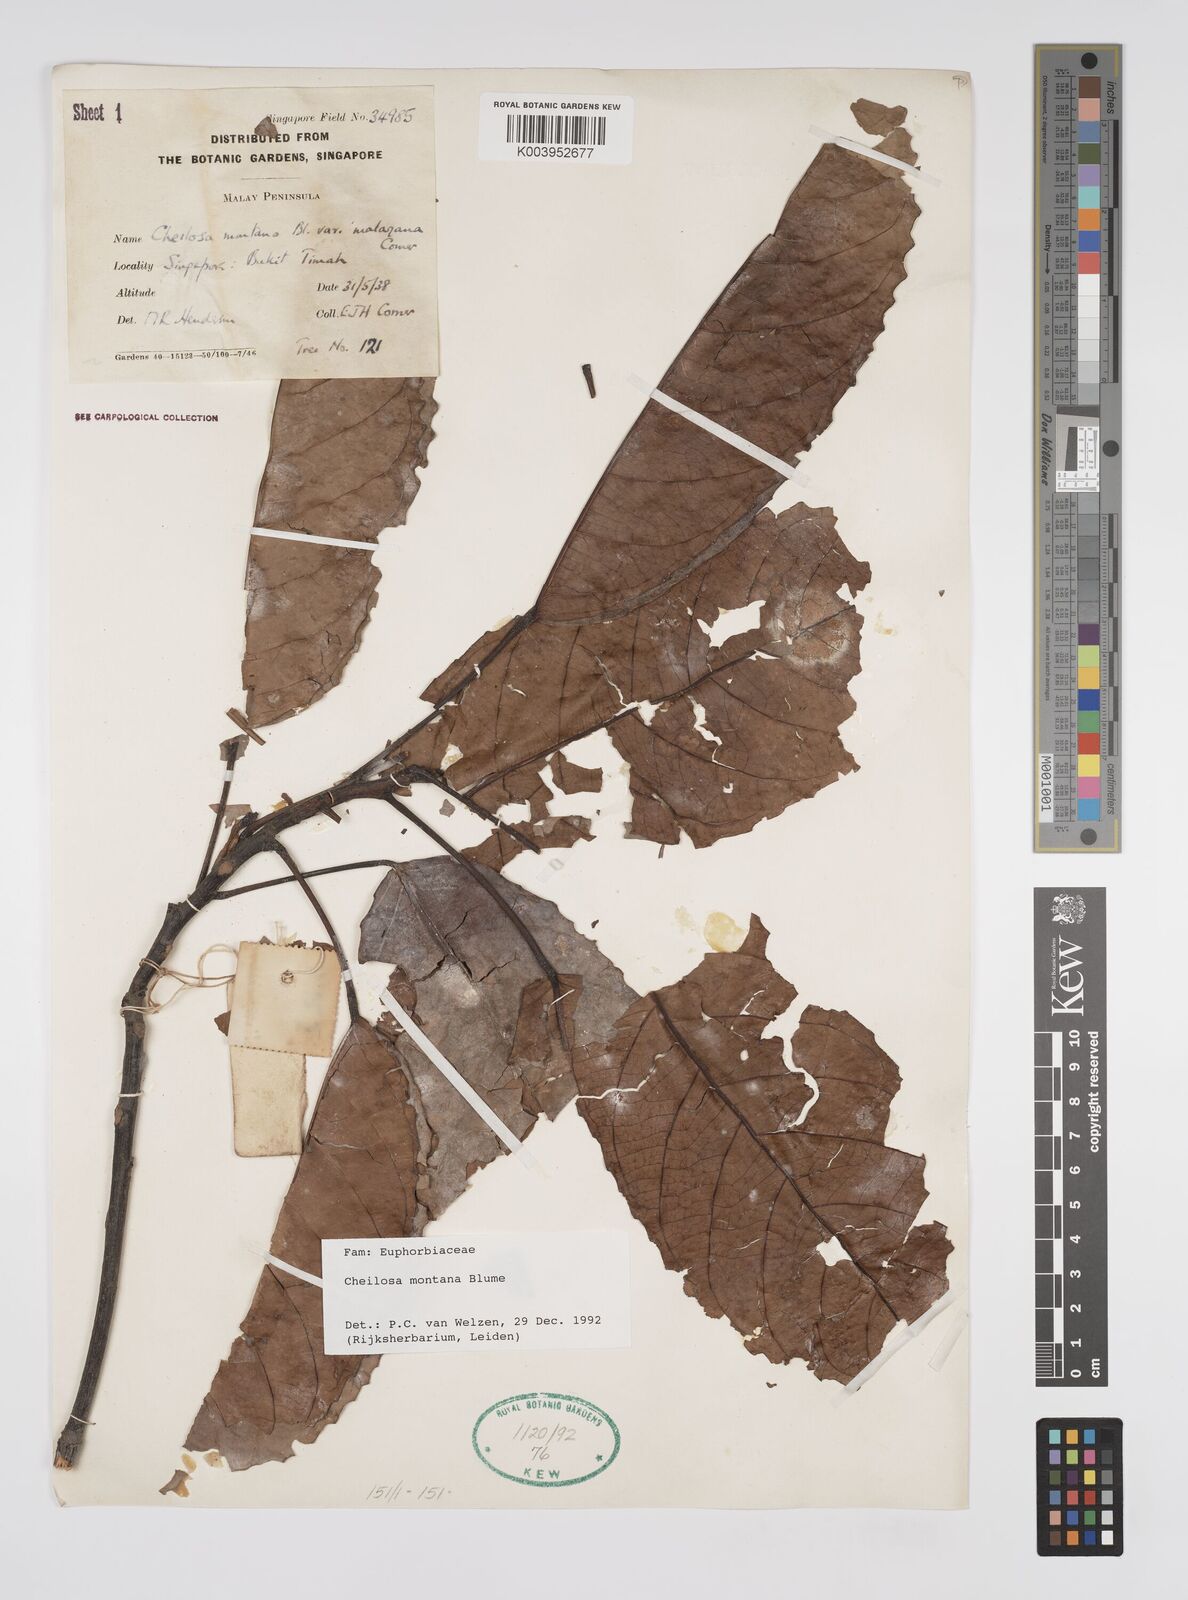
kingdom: Plantae
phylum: Tracheophyta
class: Magnoliopsida
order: Malpighiales
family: Euphorbiaceae
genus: Cheilosa
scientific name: Cheilosa montana
